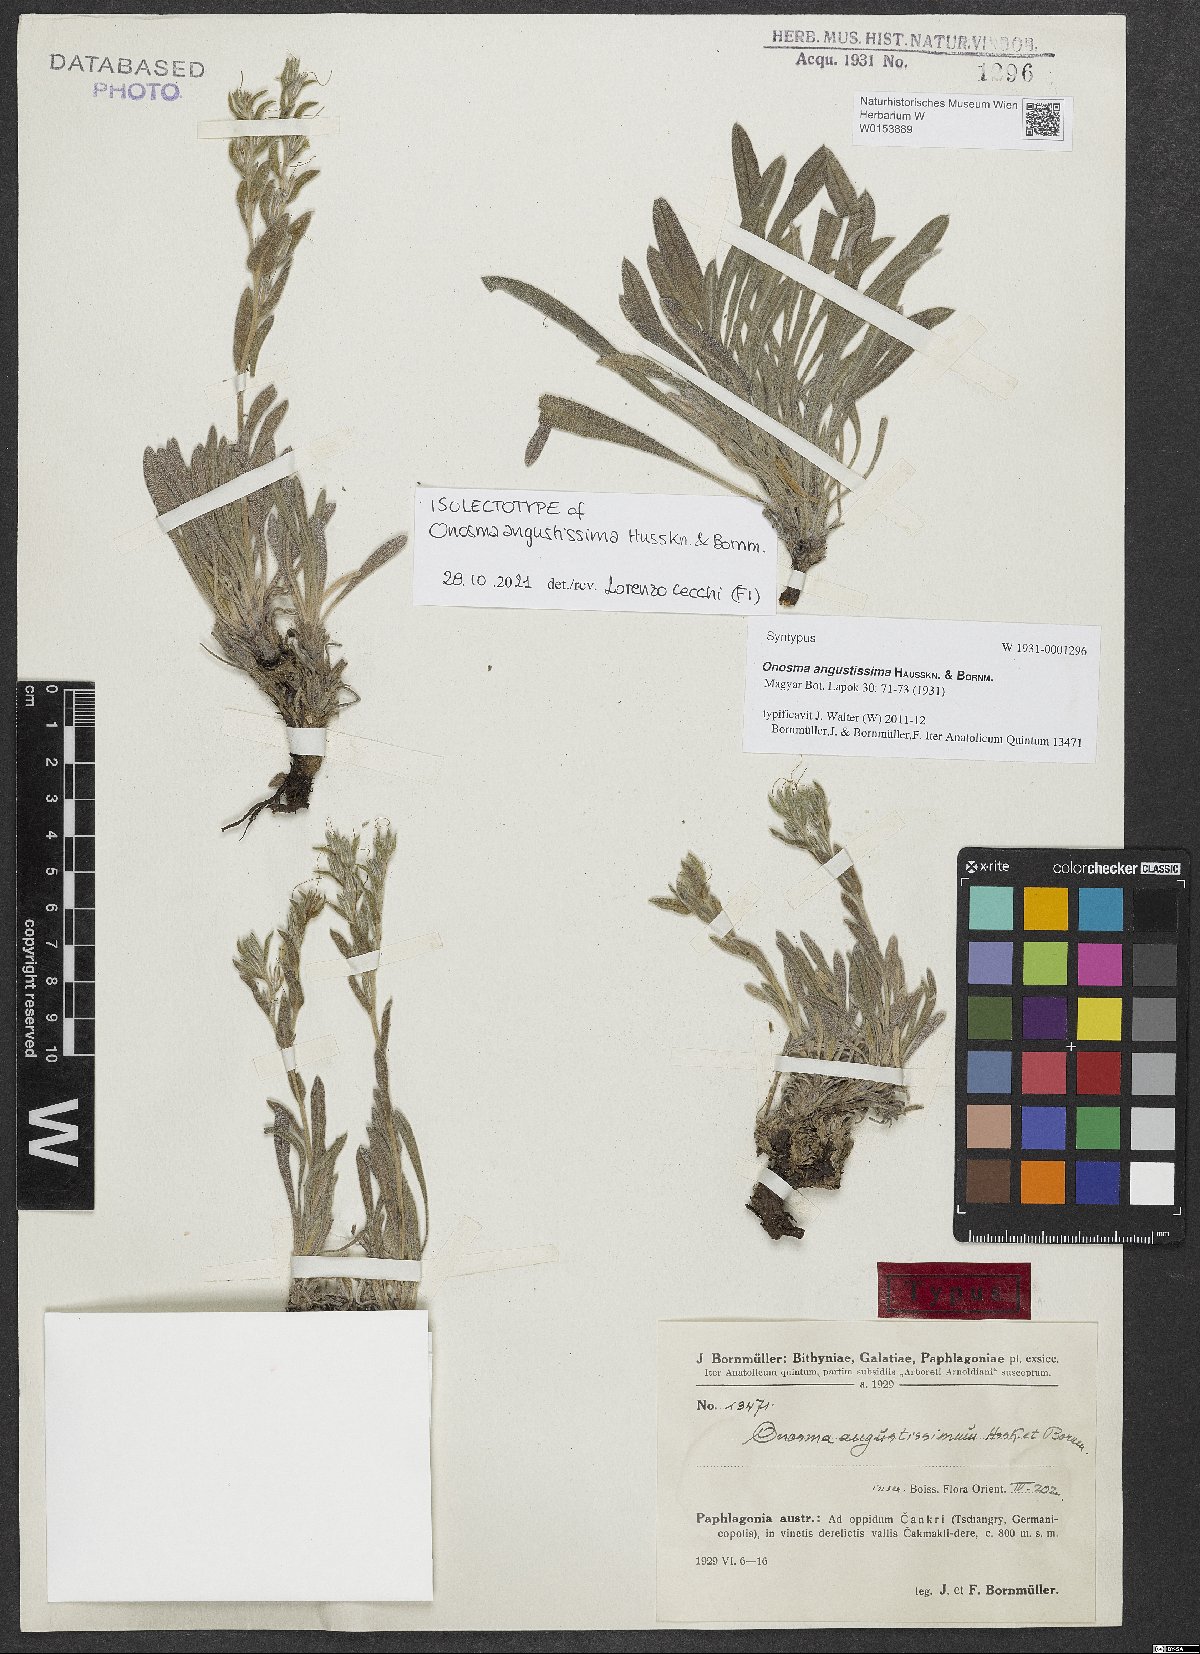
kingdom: Plantae
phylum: Tracheophyta
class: Magnoliopsida
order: Boraginales
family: Boraginaceae
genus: Onosma
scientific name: Onosma angustissima
